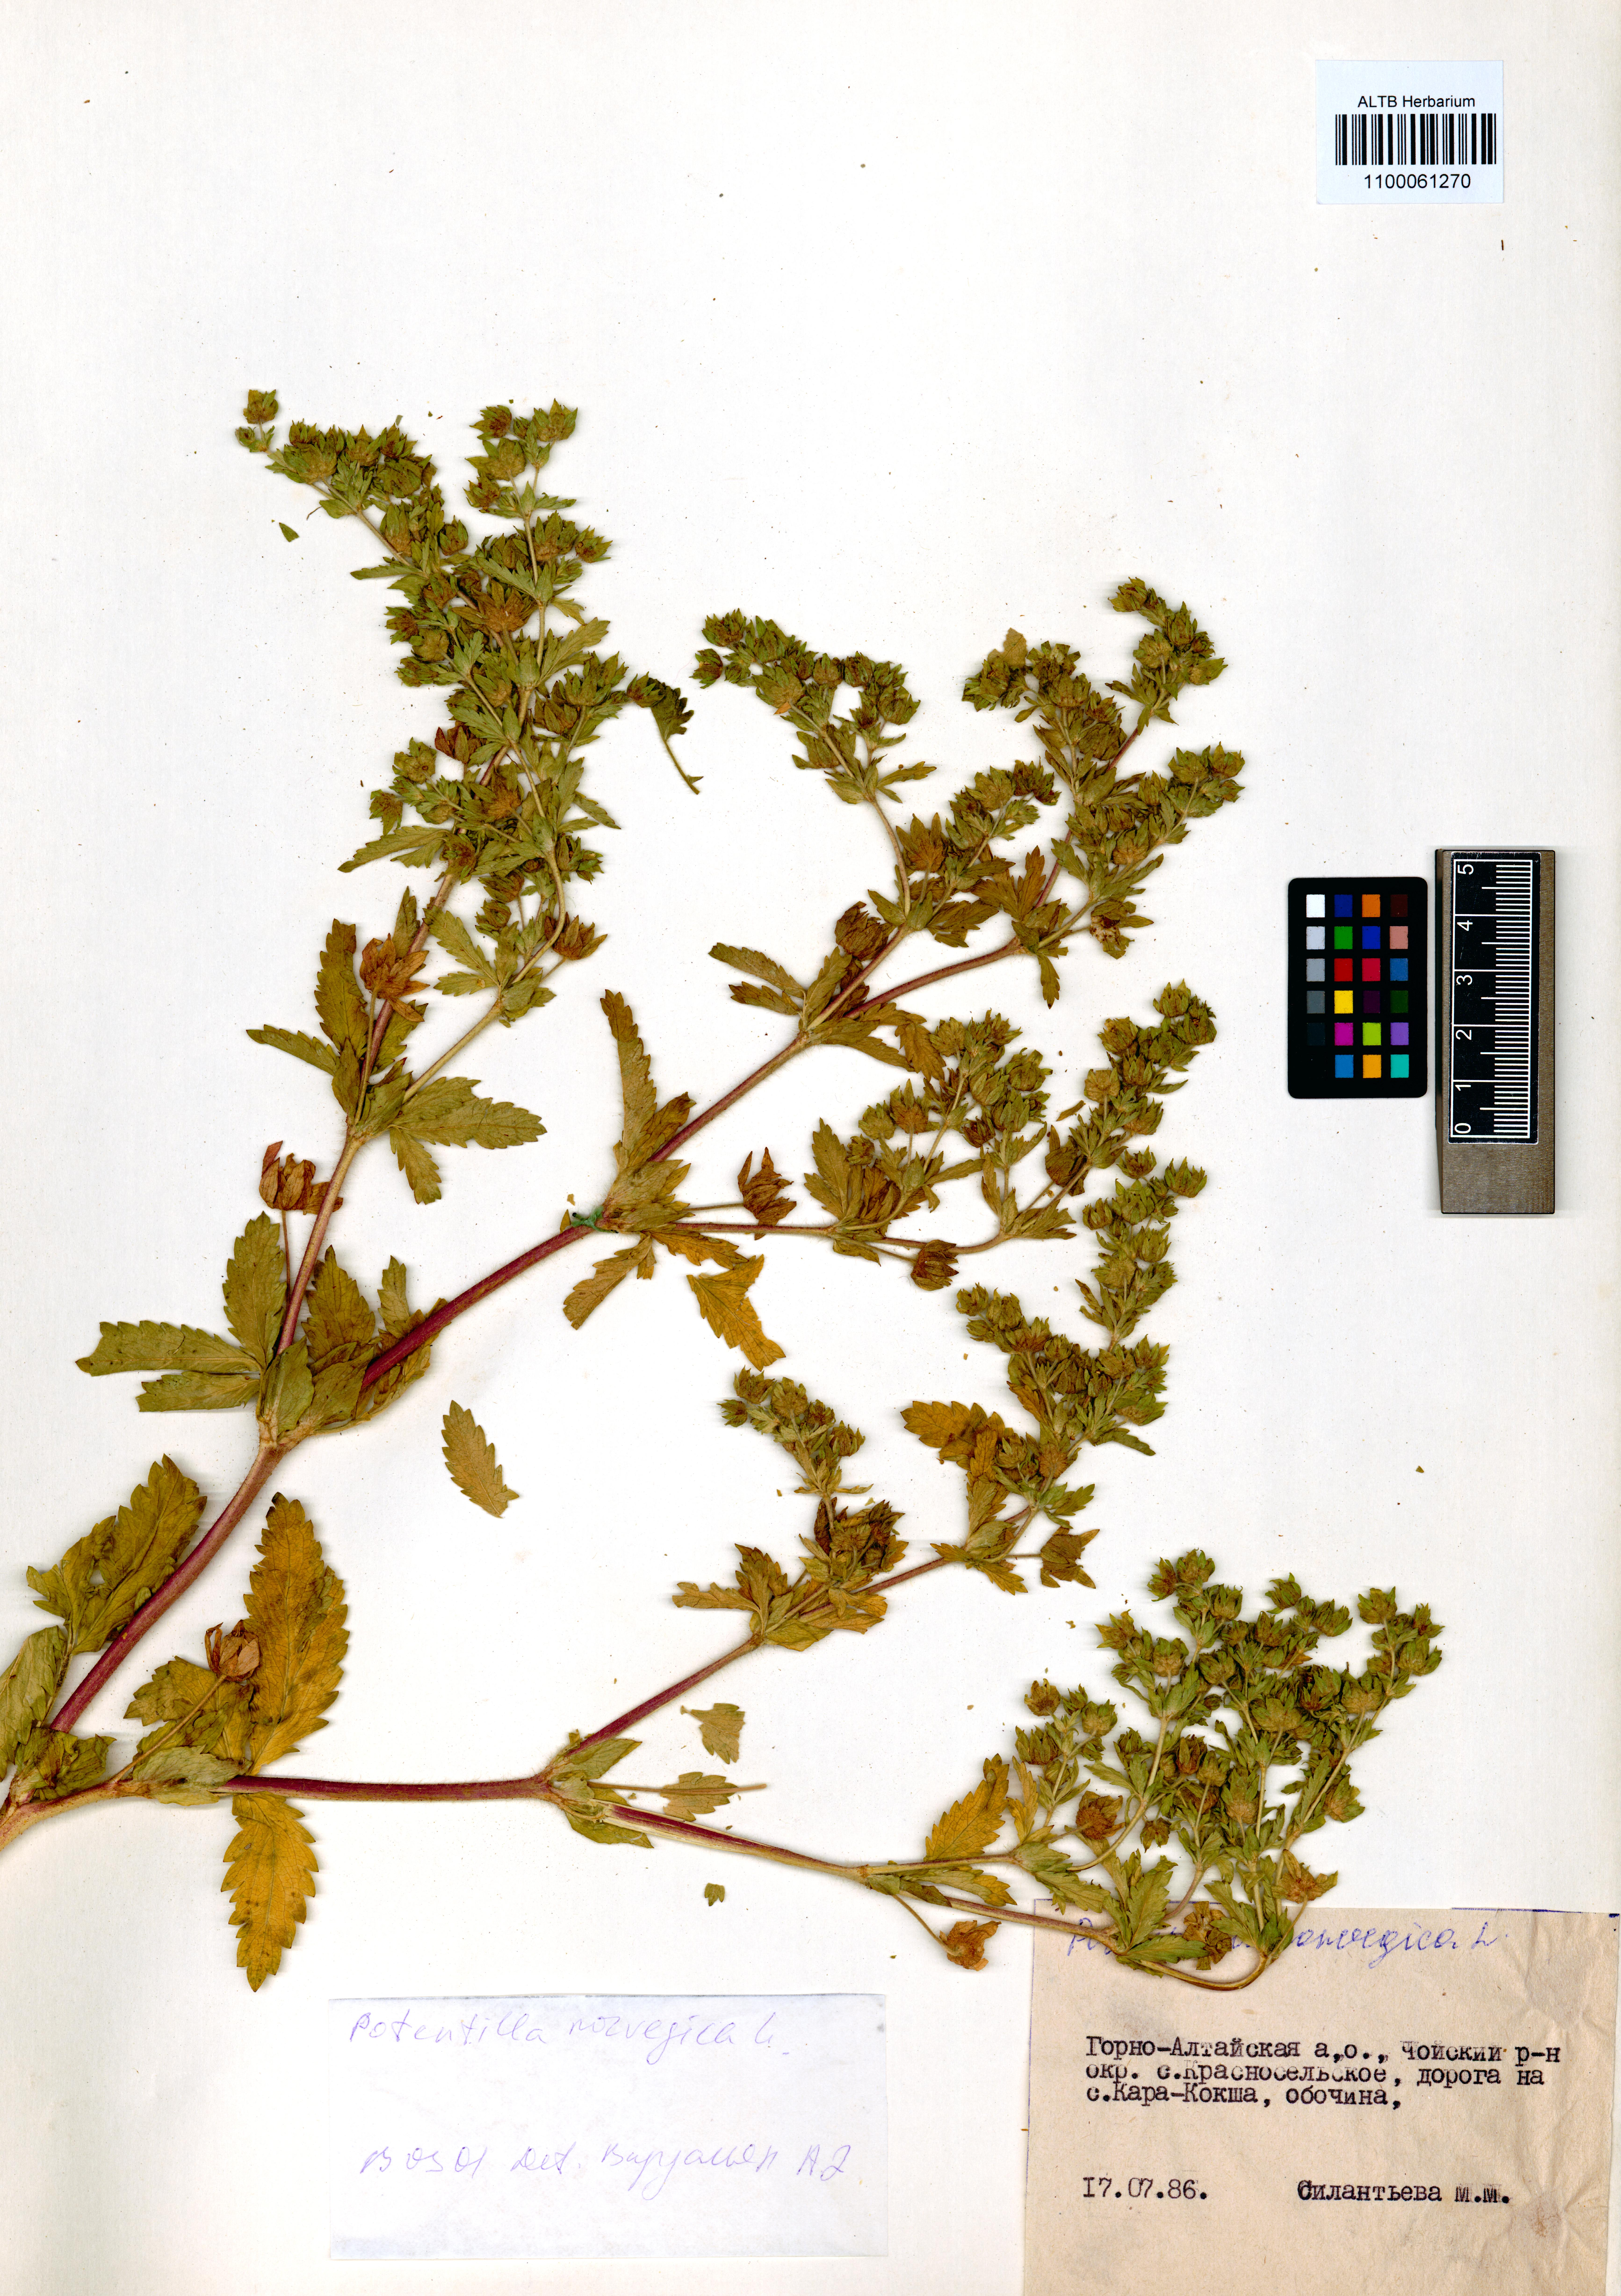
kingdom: Plantae
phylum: Tracheophyta
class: Magnoliopsida
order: Rosales
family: Rosaceae
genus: Potentilla
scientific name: Potentilla norvegica
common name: Ternate-leaved cinquefoil
